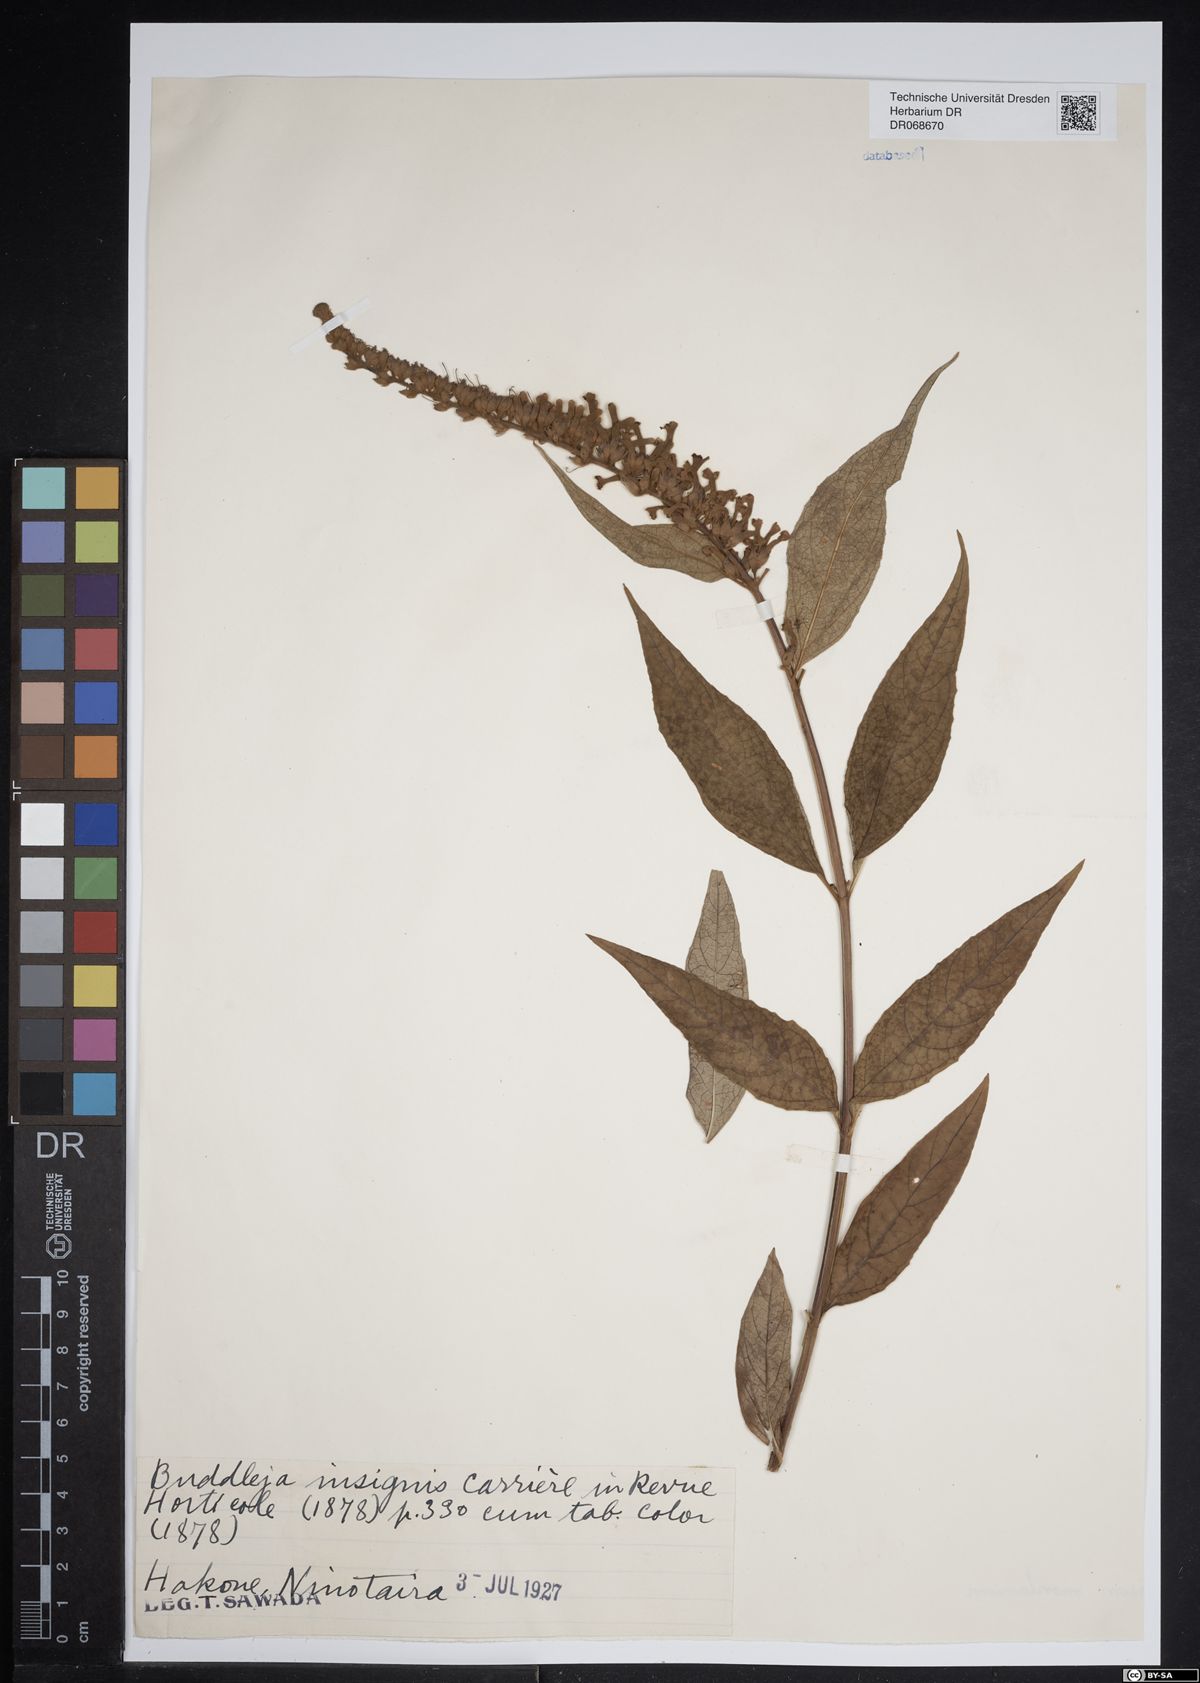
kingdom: Plantae
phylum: Tracheophyta
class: Magnoliopsida
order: Lamiales
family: Scrophulariaceae
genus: Buddleja
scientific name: Buddleja insignis
